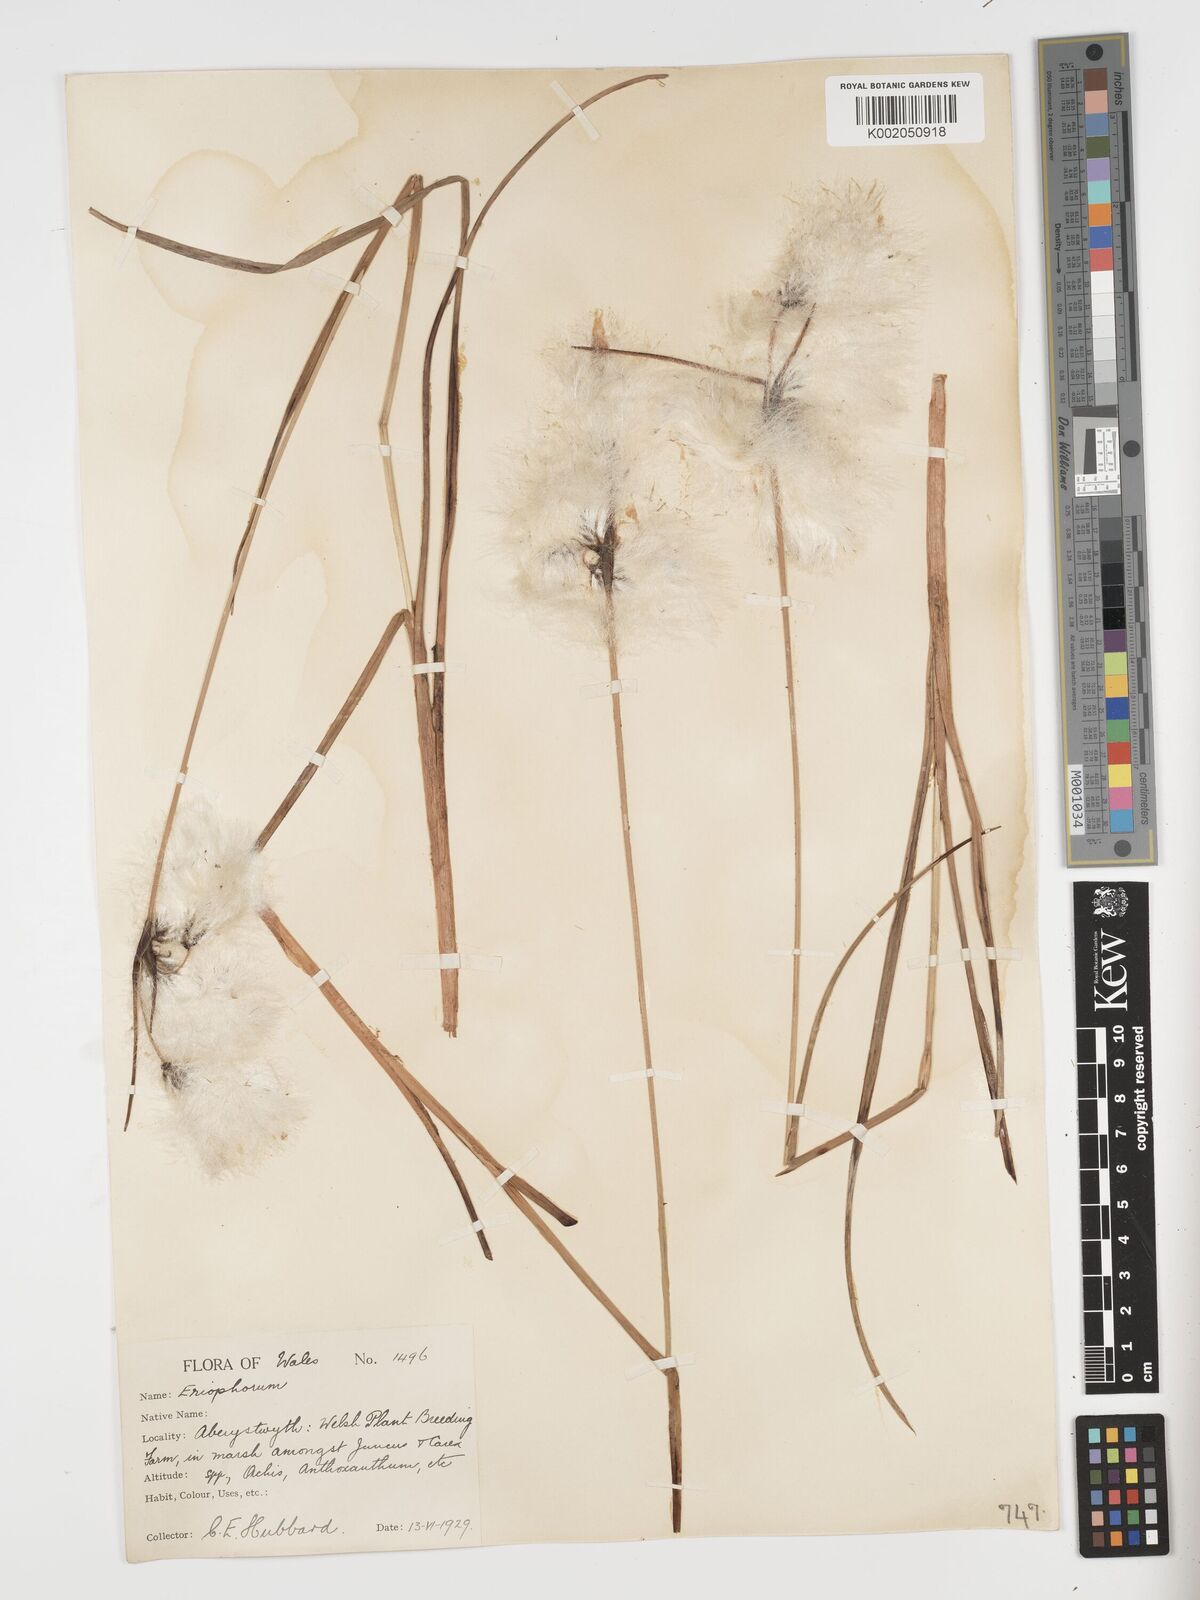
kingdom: Plantae
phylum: Tracheophyta
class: Liliopsida
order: Poales
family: Cyperaceae
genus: Eriophorum
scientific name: Eriophorum angustifolium
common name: Common cottongrass
